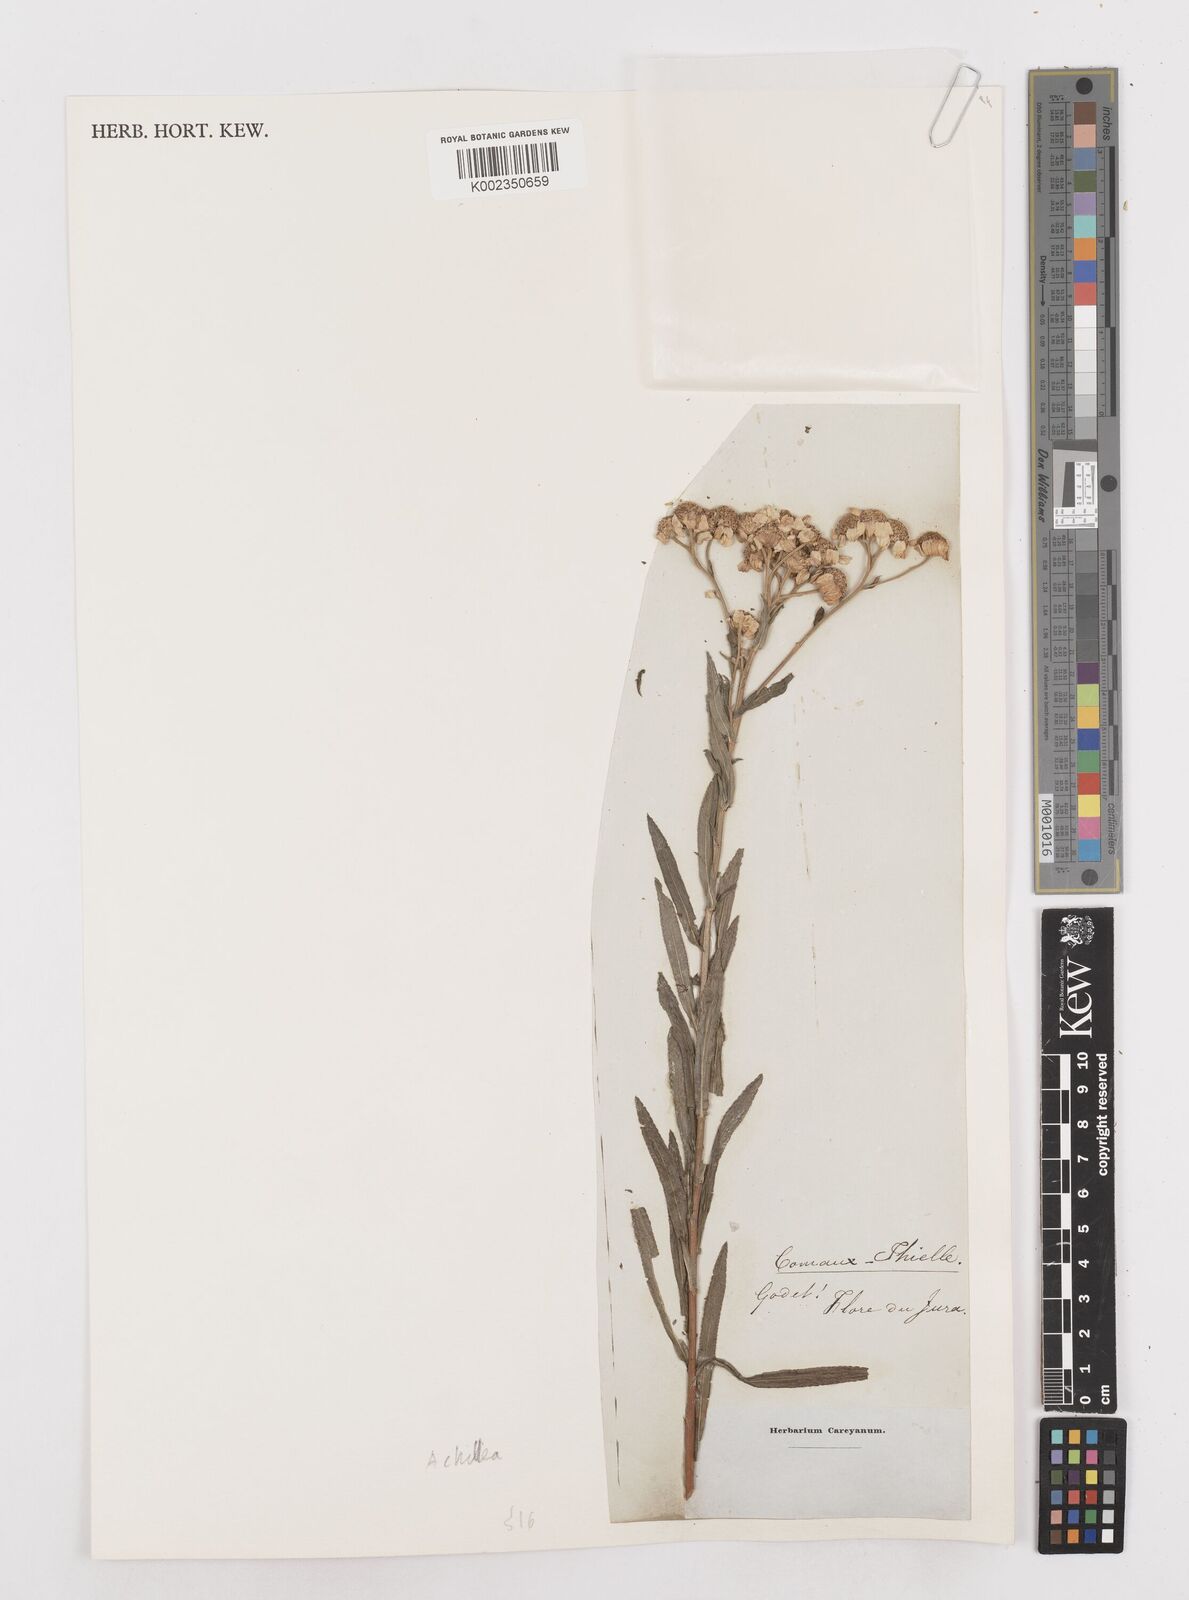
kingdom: Plantae
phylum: Tracheophyta
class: Magnoliopsida
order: Asterales
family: Asteraceae
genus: Achillea
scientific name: Achillea ptarmica
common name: Sneezeweed
